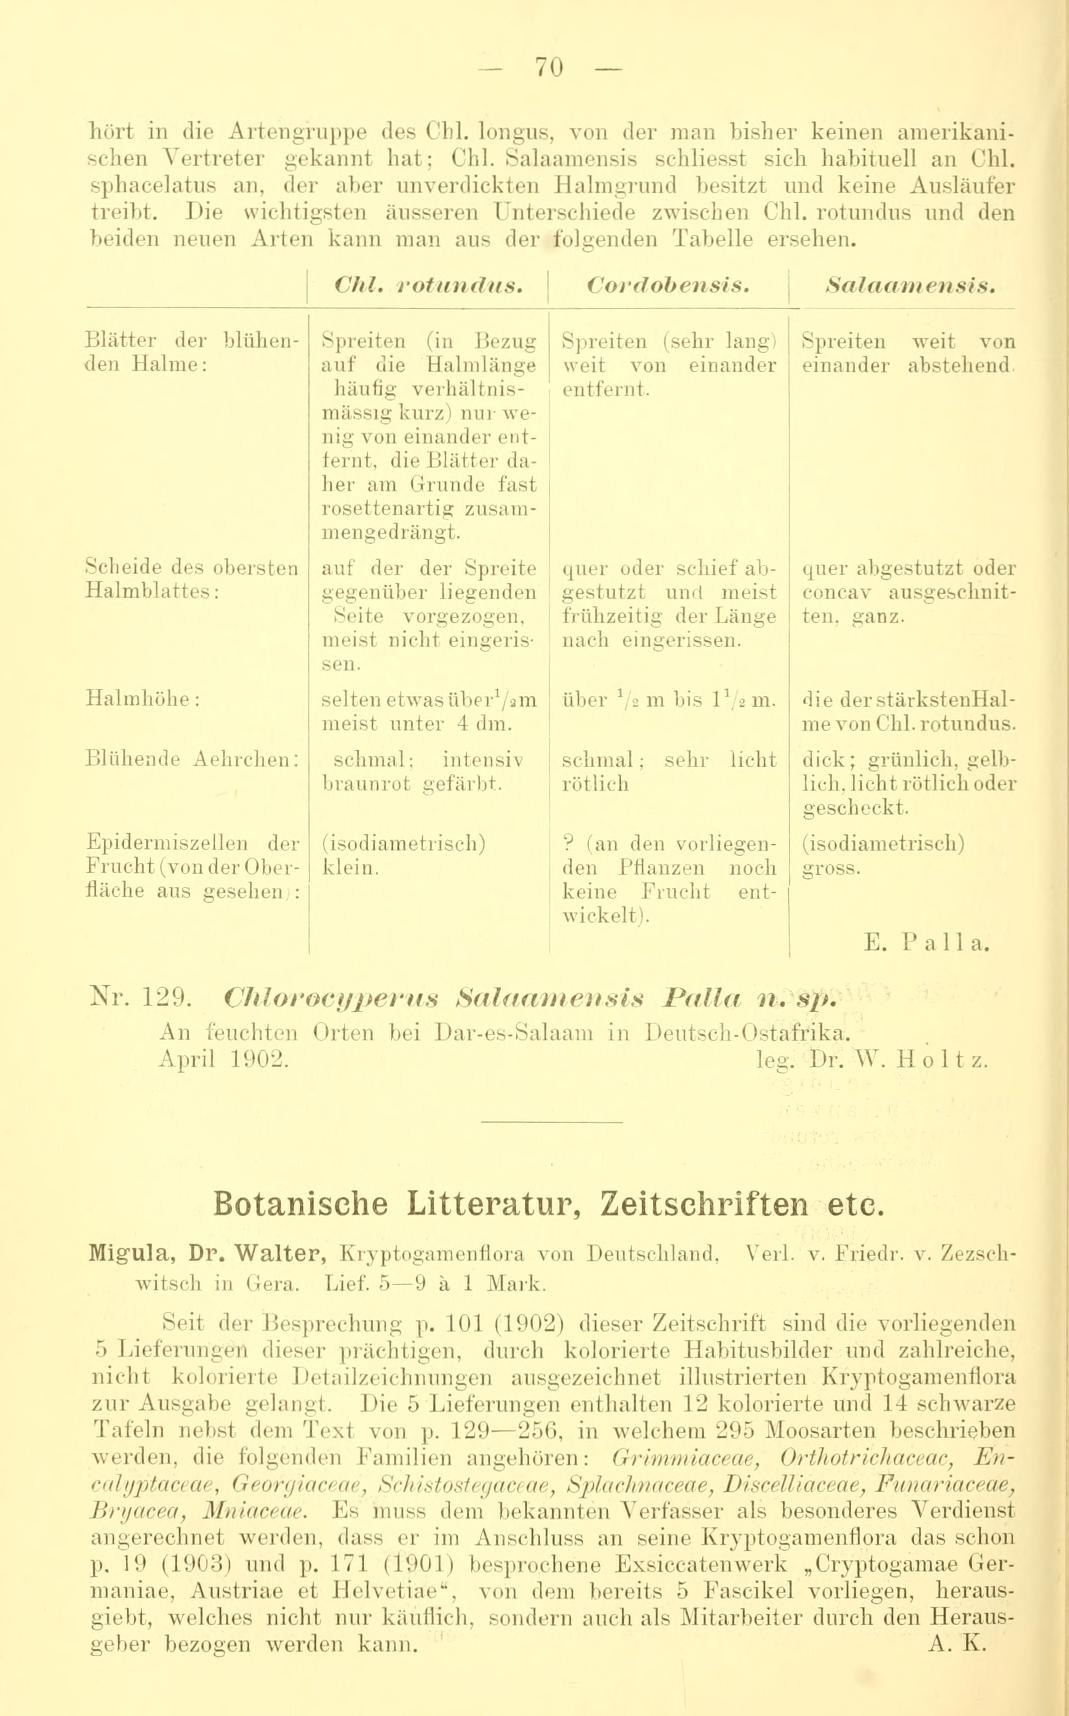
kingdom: Plantae
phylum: Tracheophyta
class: Liliopsida
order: Poales
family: Cyperaceae
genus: Cyperus
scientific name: Cyperus articulatus
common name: Jointed flatsedge
